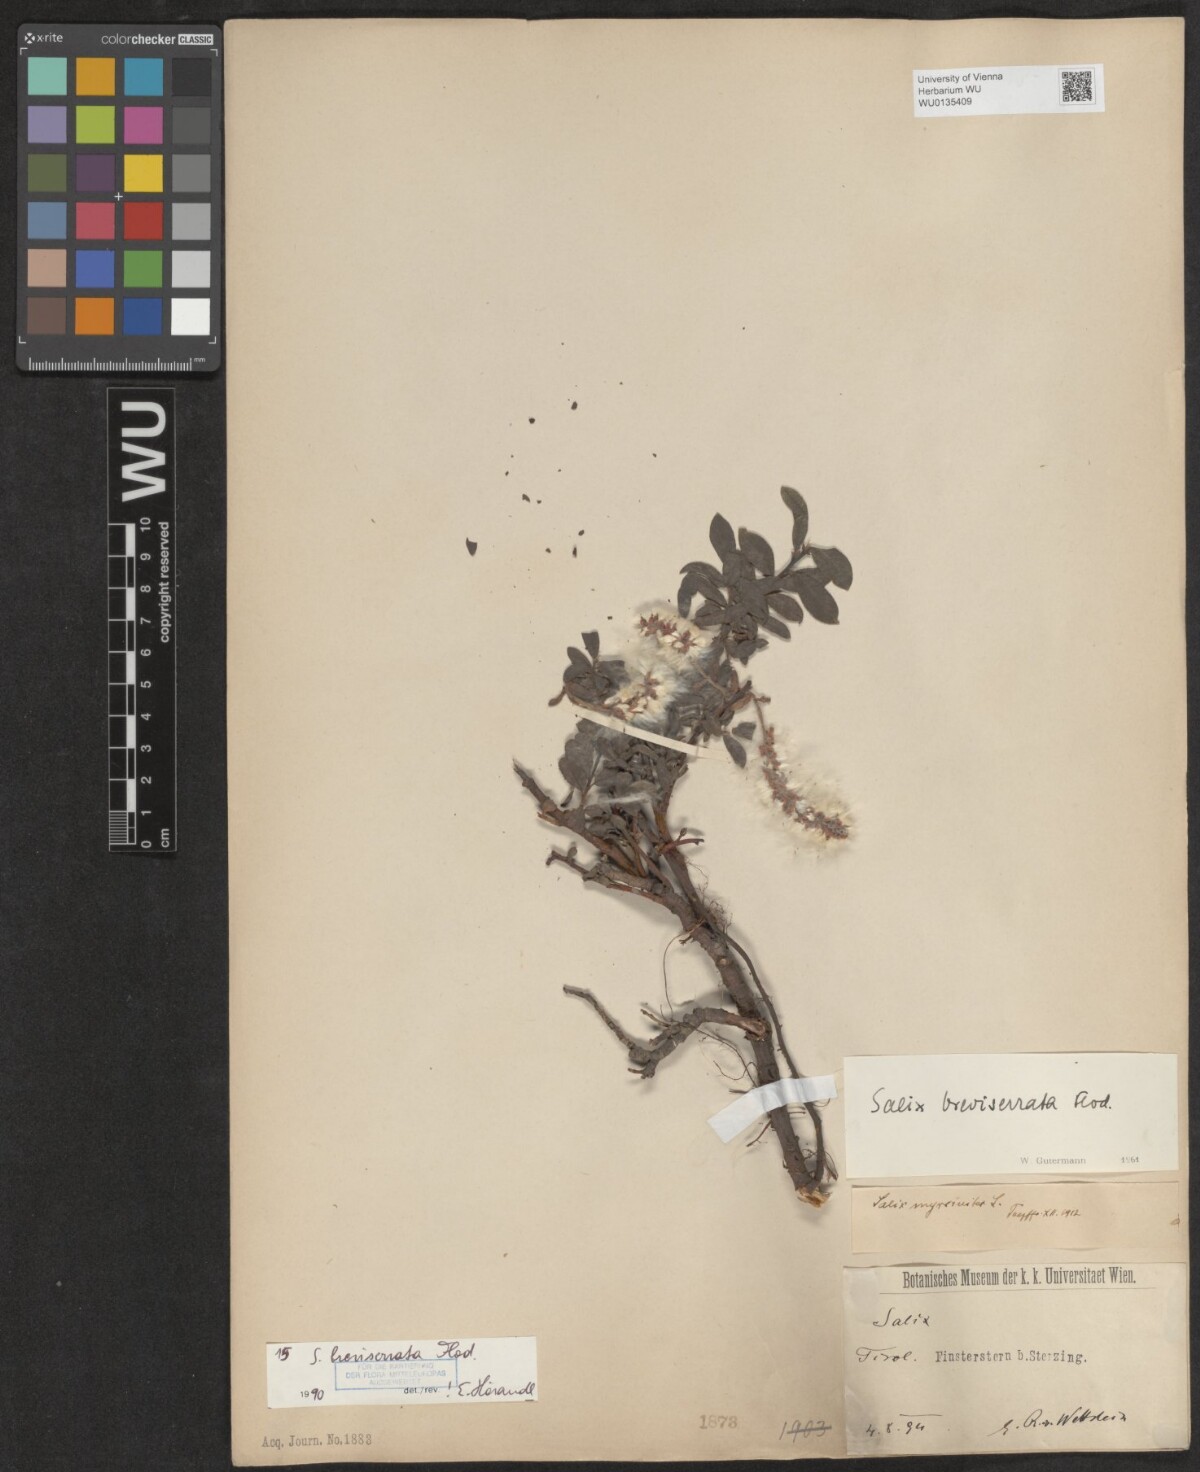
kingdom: Plantae
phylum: Tracheophyta
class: Magnoliopsida
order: Malpighiales
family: Salicaceae
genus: Salix
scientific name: Salix breviserrata
